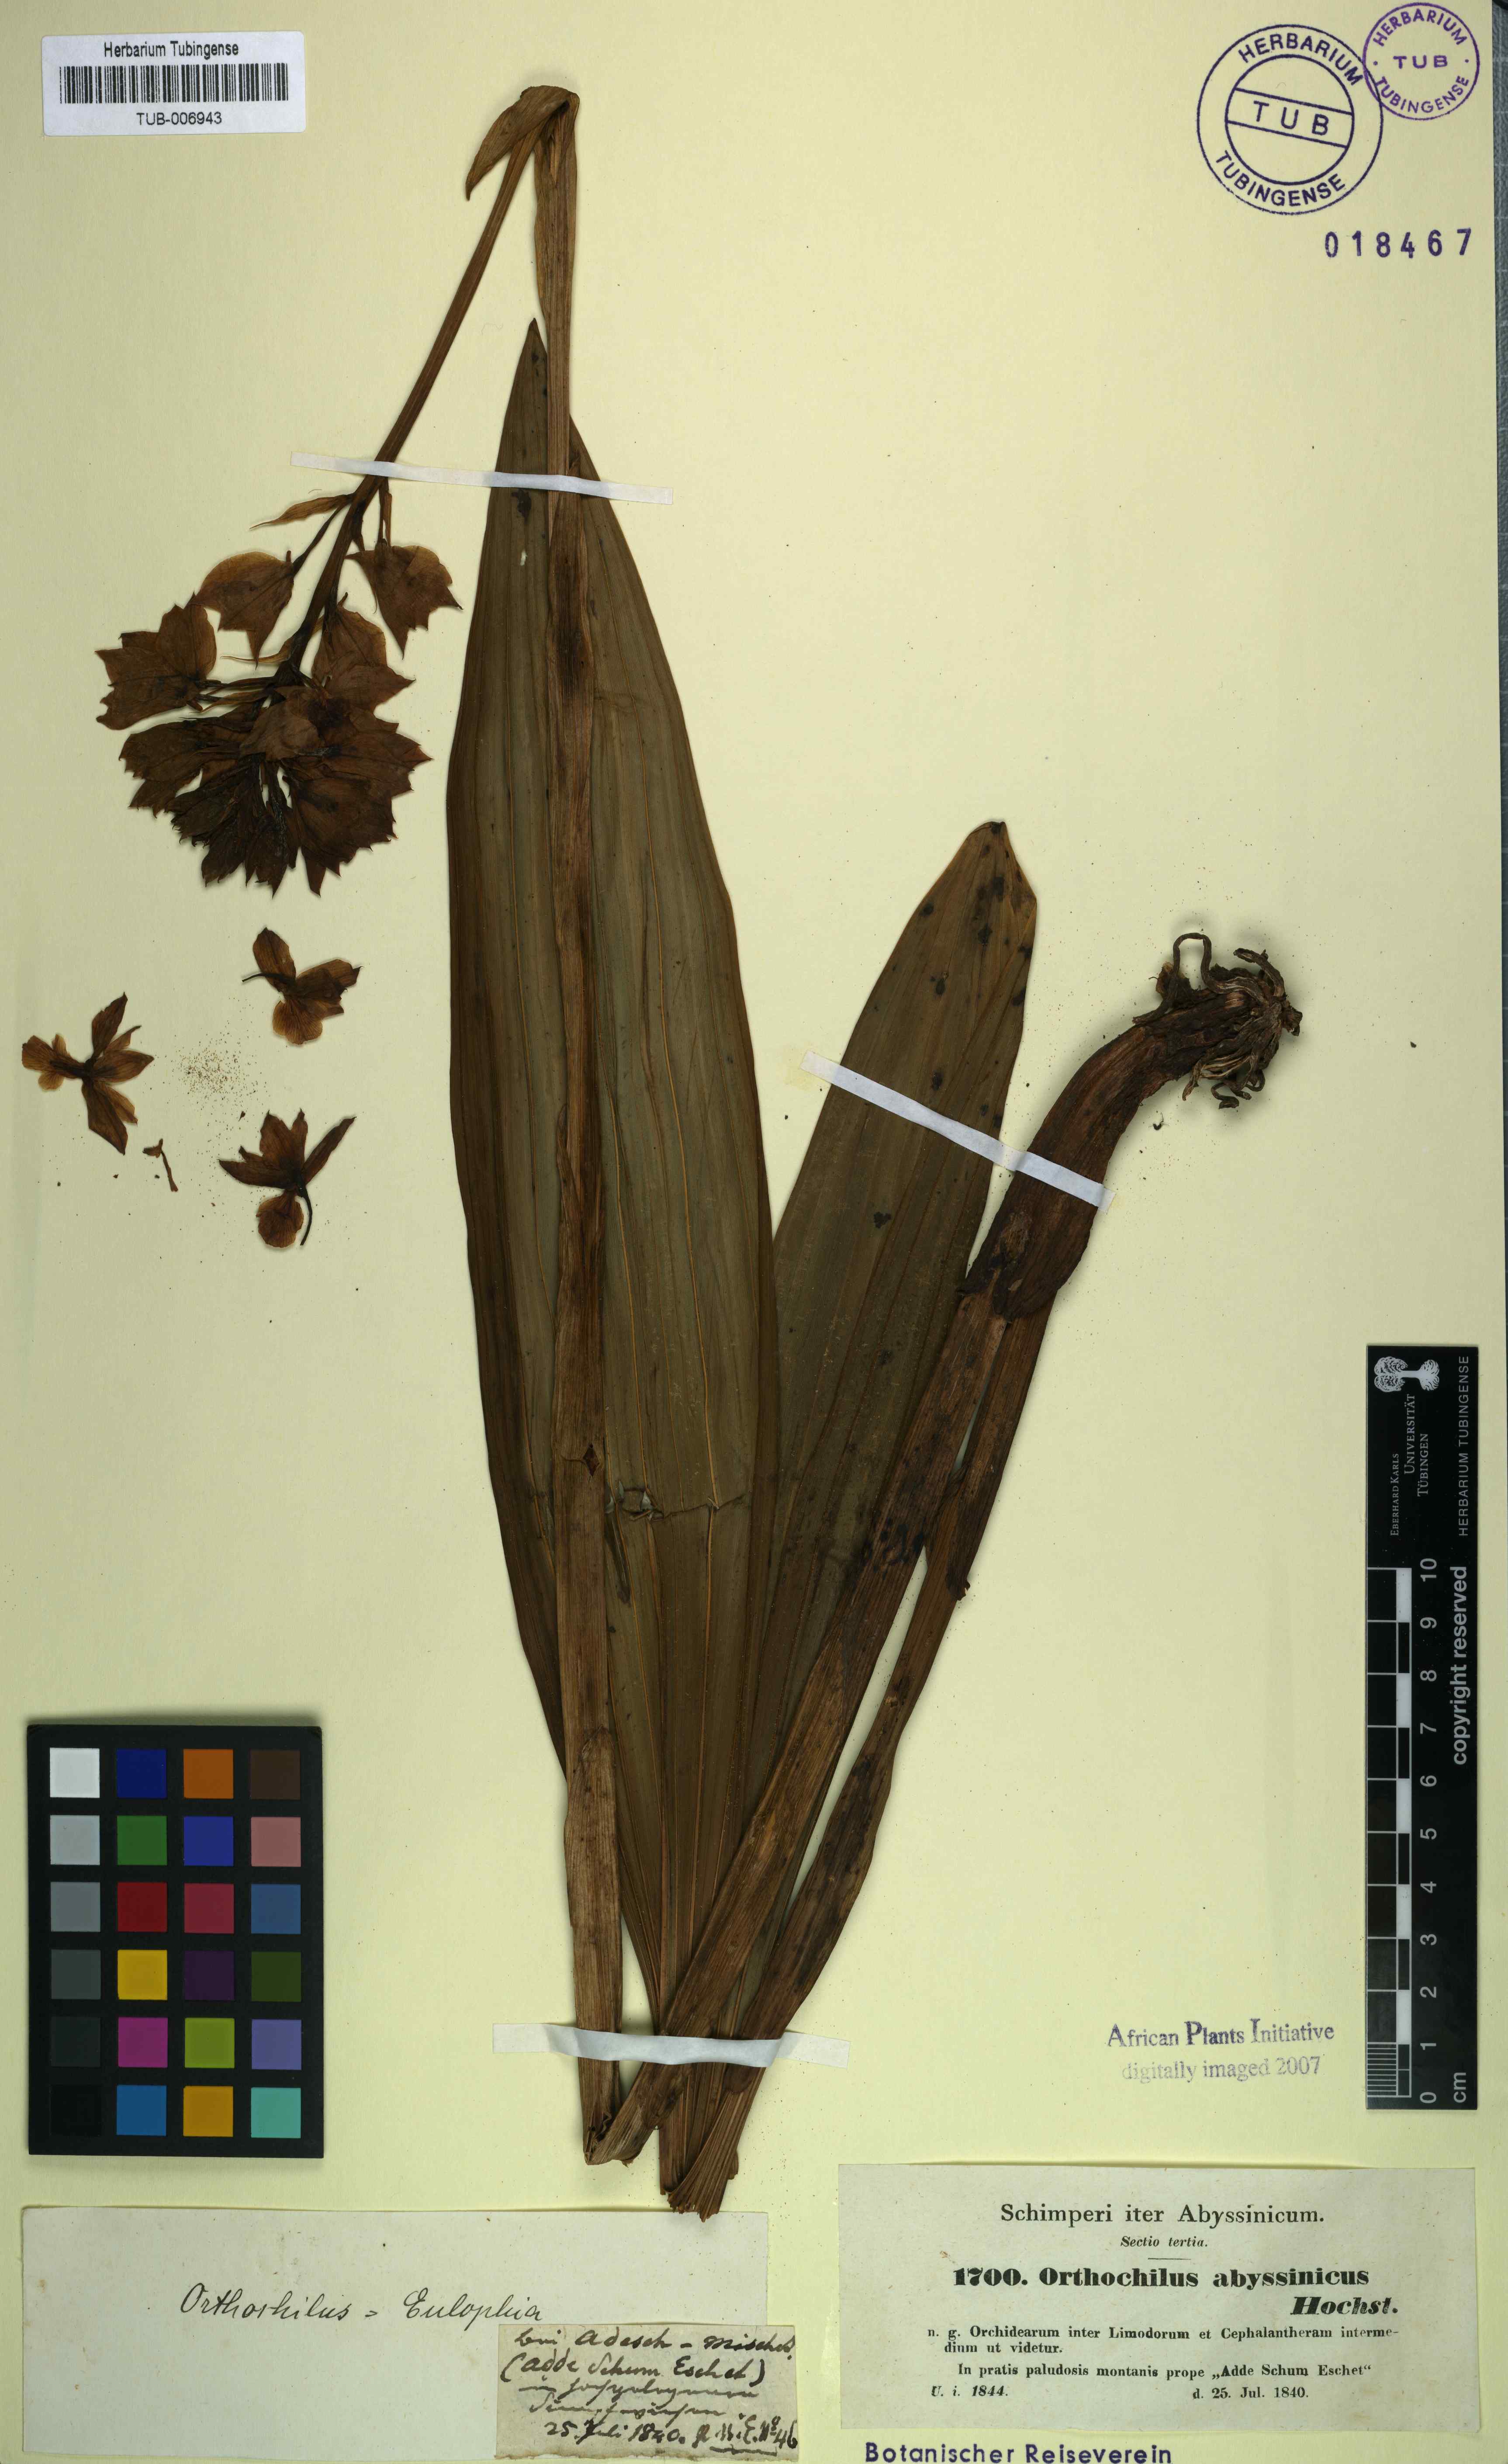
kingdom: Plantae
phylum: Tracheophyta
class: Liliopsida
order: Asparagales
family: Orchidaceae
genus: Eulophia
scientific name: Eulophia abyssinica
